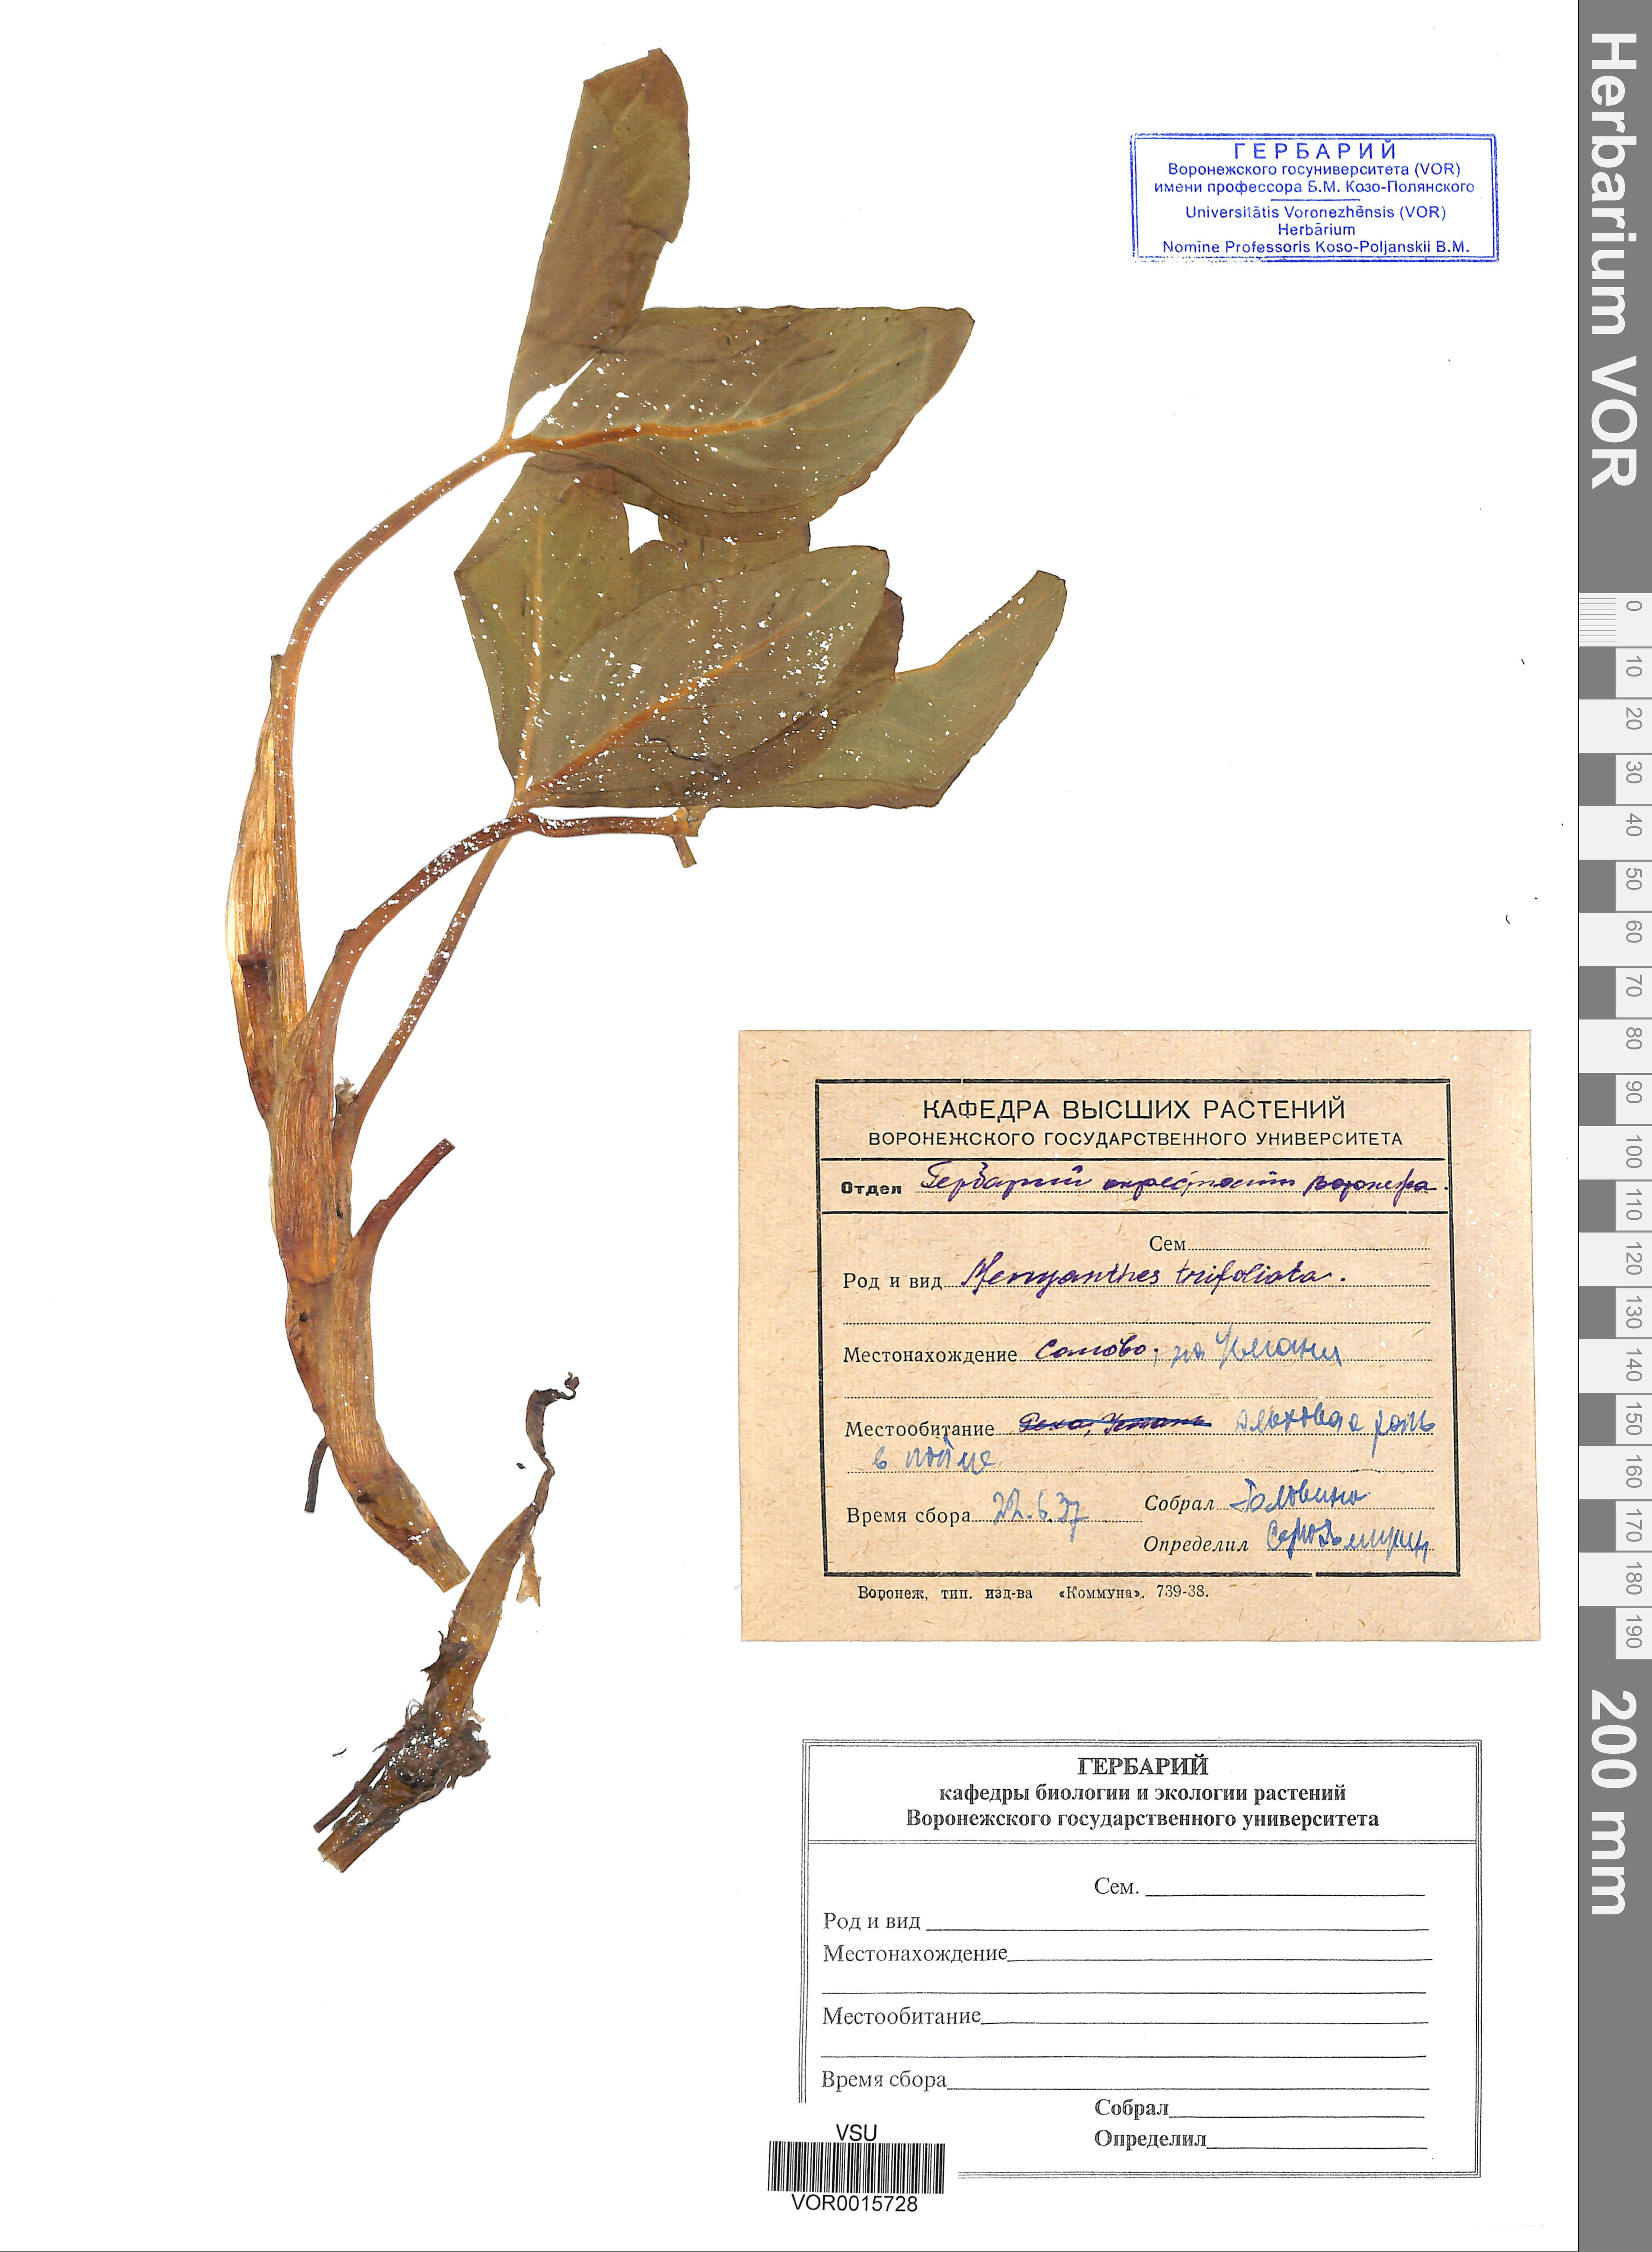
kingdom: Plantae
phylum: Tracheophyta
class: Magnoliopsida
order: Asterales
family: Menyanthaceae
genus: Menyanthes
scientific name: Menyanthes trifoliata
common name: Bogbean
